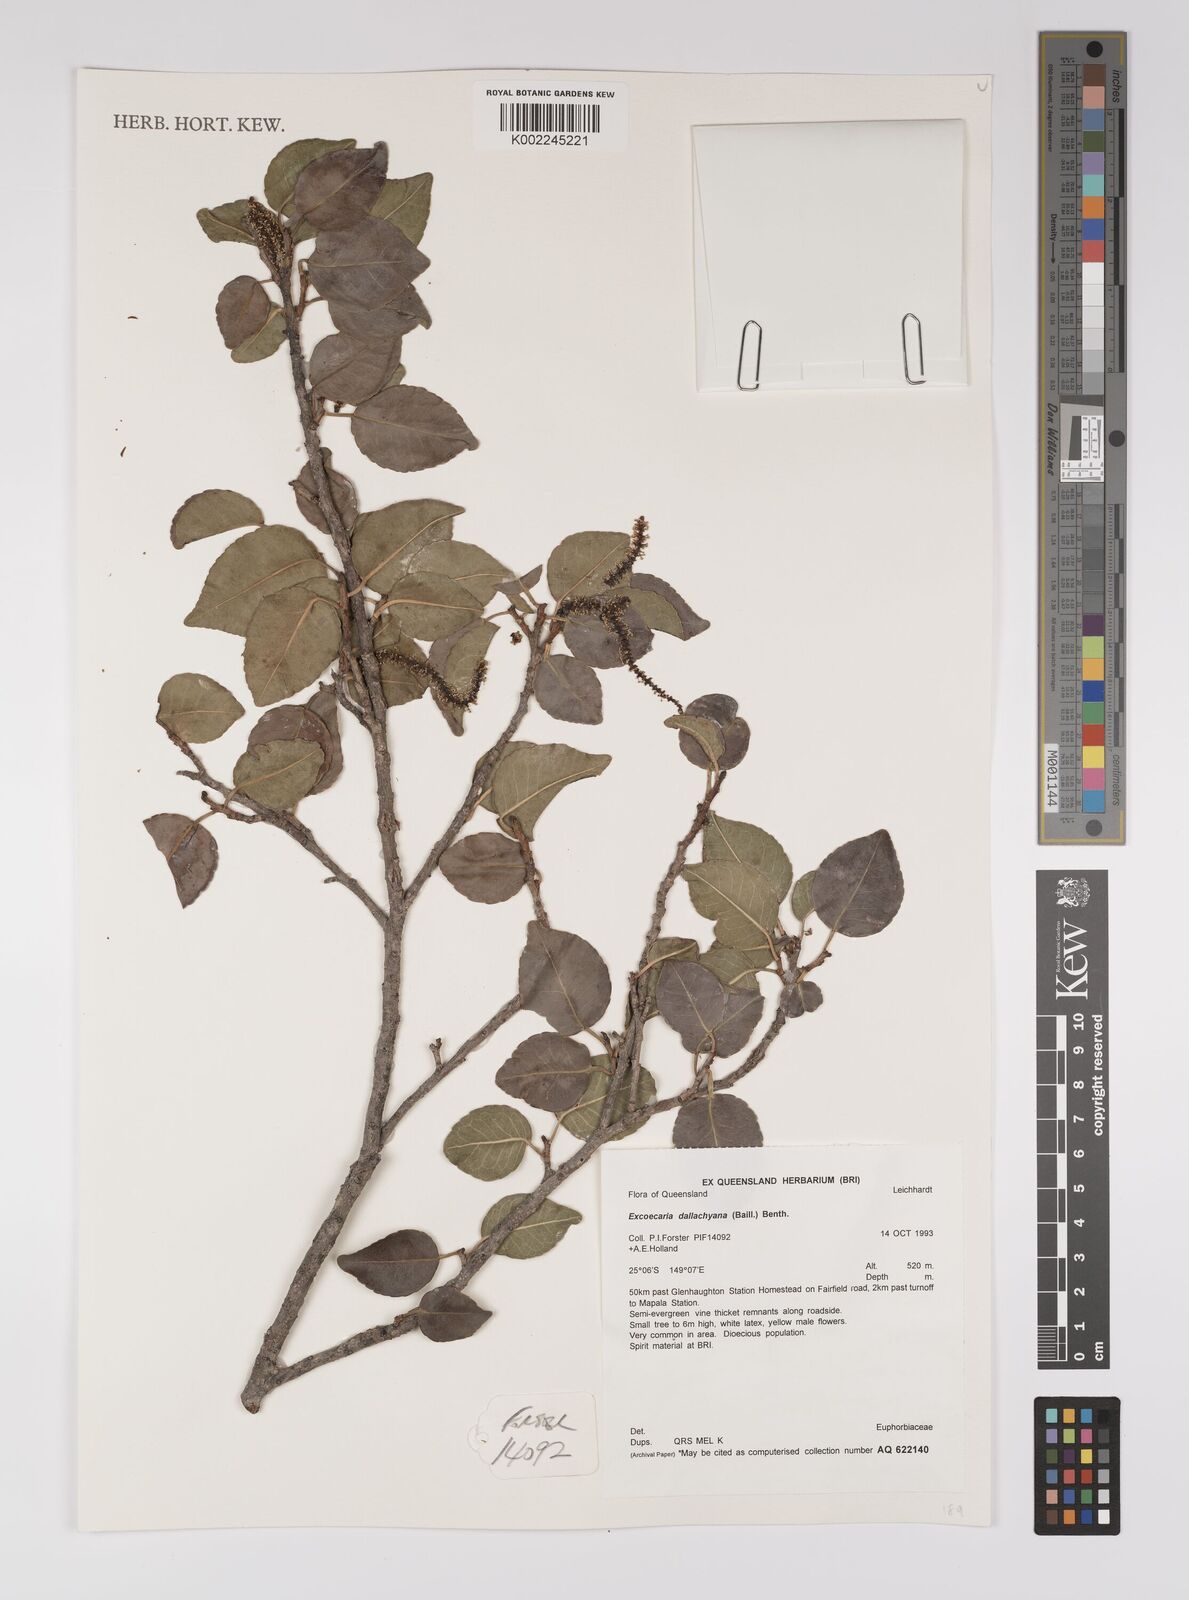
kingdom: Plantae
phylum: Tracheophyta
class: Magnoliopsida
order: Malpighiales
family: Euphorbiaceae
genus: Excoecaria
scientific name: Excoecaria dallachyana
